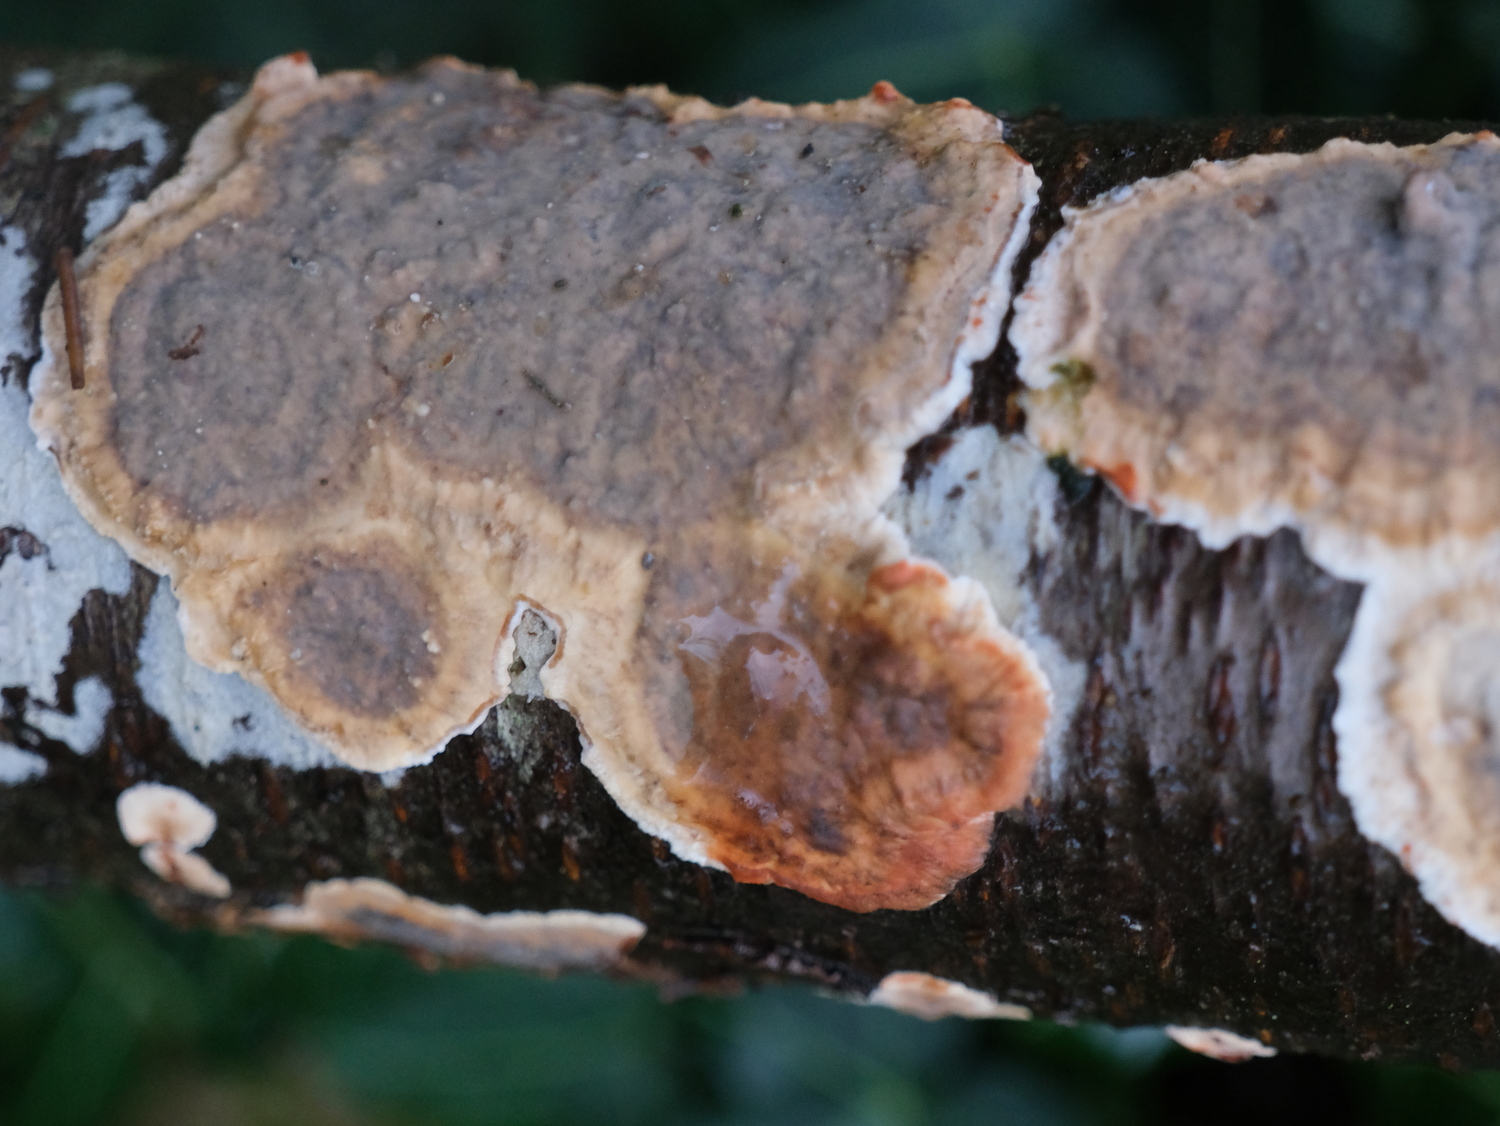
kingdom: Fungi
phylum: Basidiomycota
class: Agaricomycetes
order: Russulales
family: Stereaceae
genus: Stereum
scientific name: Stereum rugosum
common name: rynket lædersvamp
